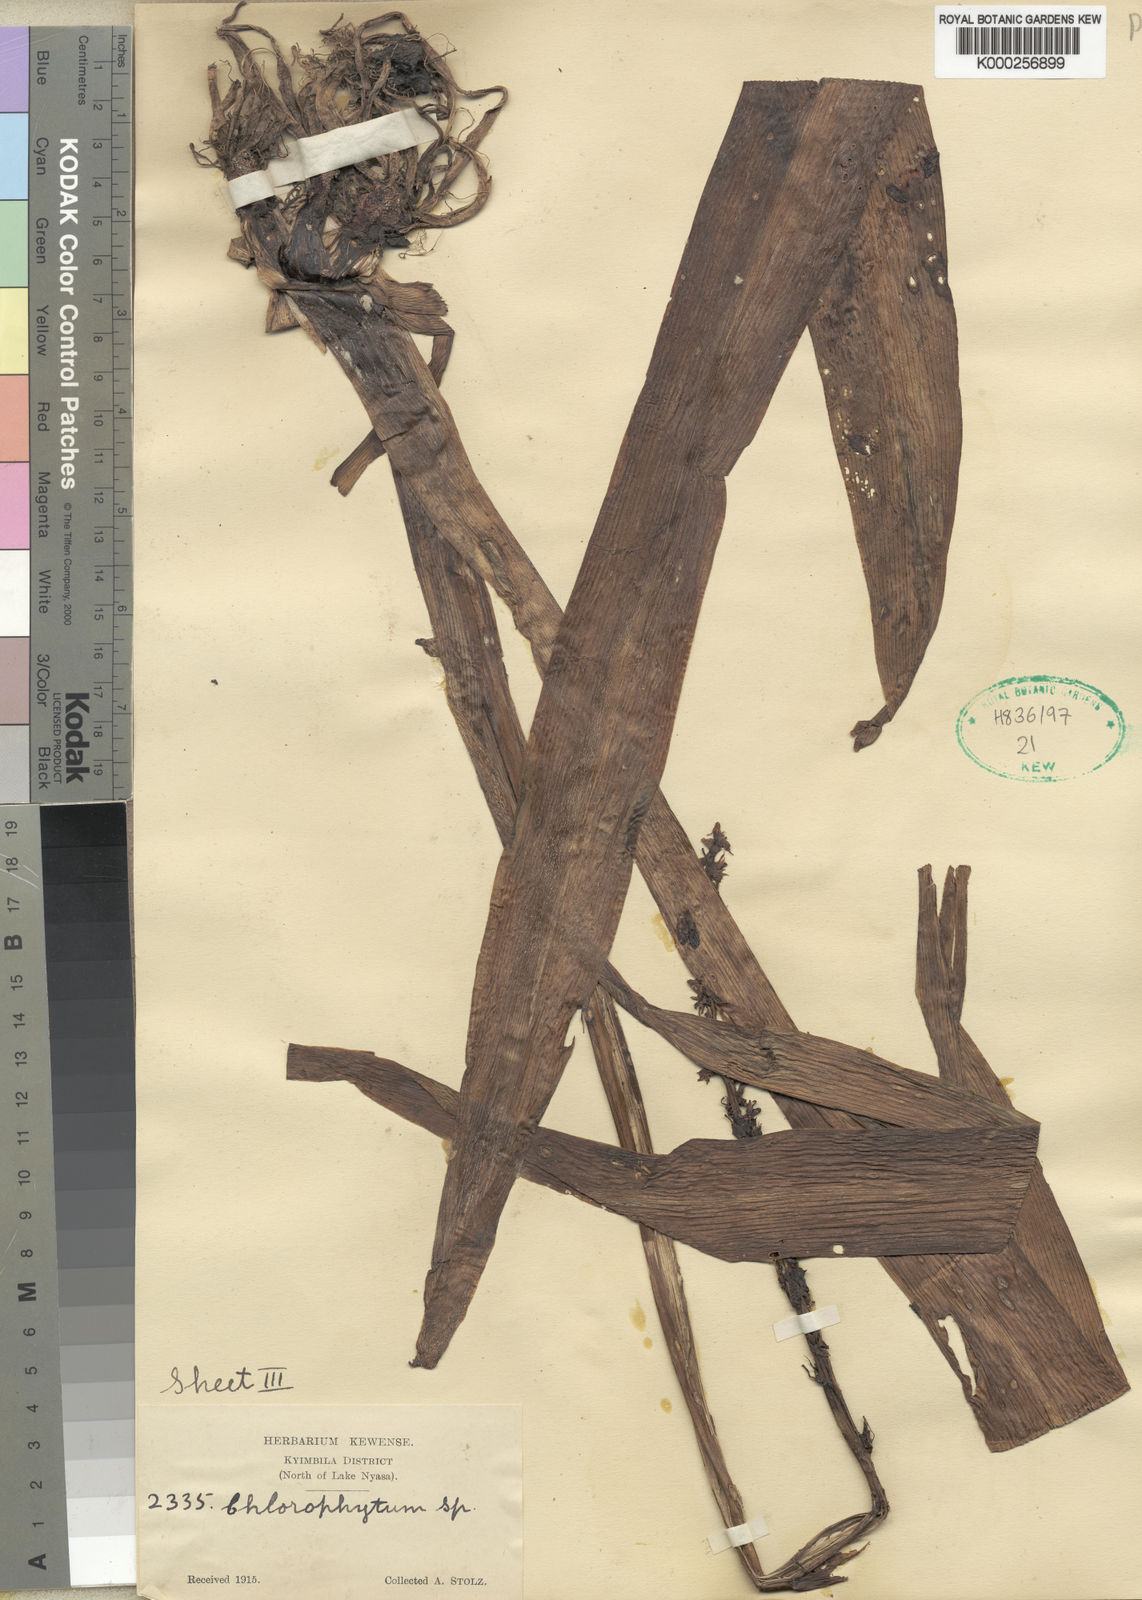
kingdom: Plantae
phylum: Tracheophyta
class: Liliopsida
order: Asparagales
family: Asparagaceae
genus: Chlorophytum
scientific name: Chlorophytum macrophyllum
